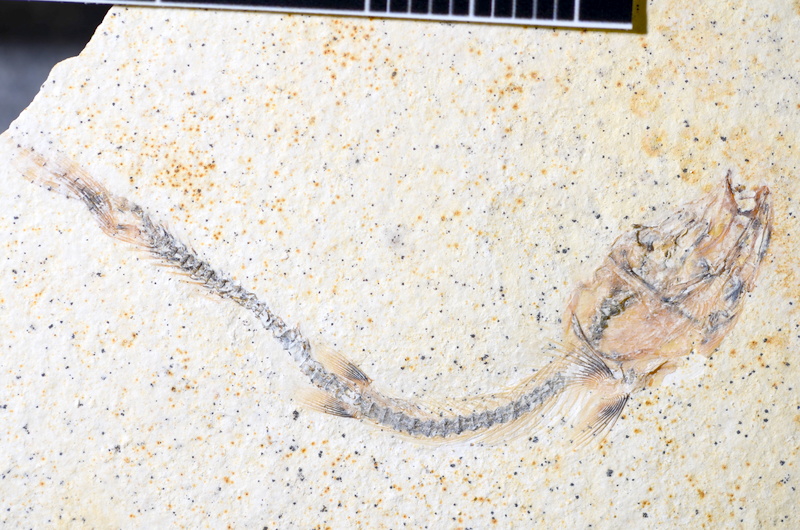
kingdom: Animalia
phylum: Chordata
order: Salmoniformes
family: Orthogonikleithridae
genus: Orthogonikleithrus
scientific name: Orthogonikleithrus hoelli
